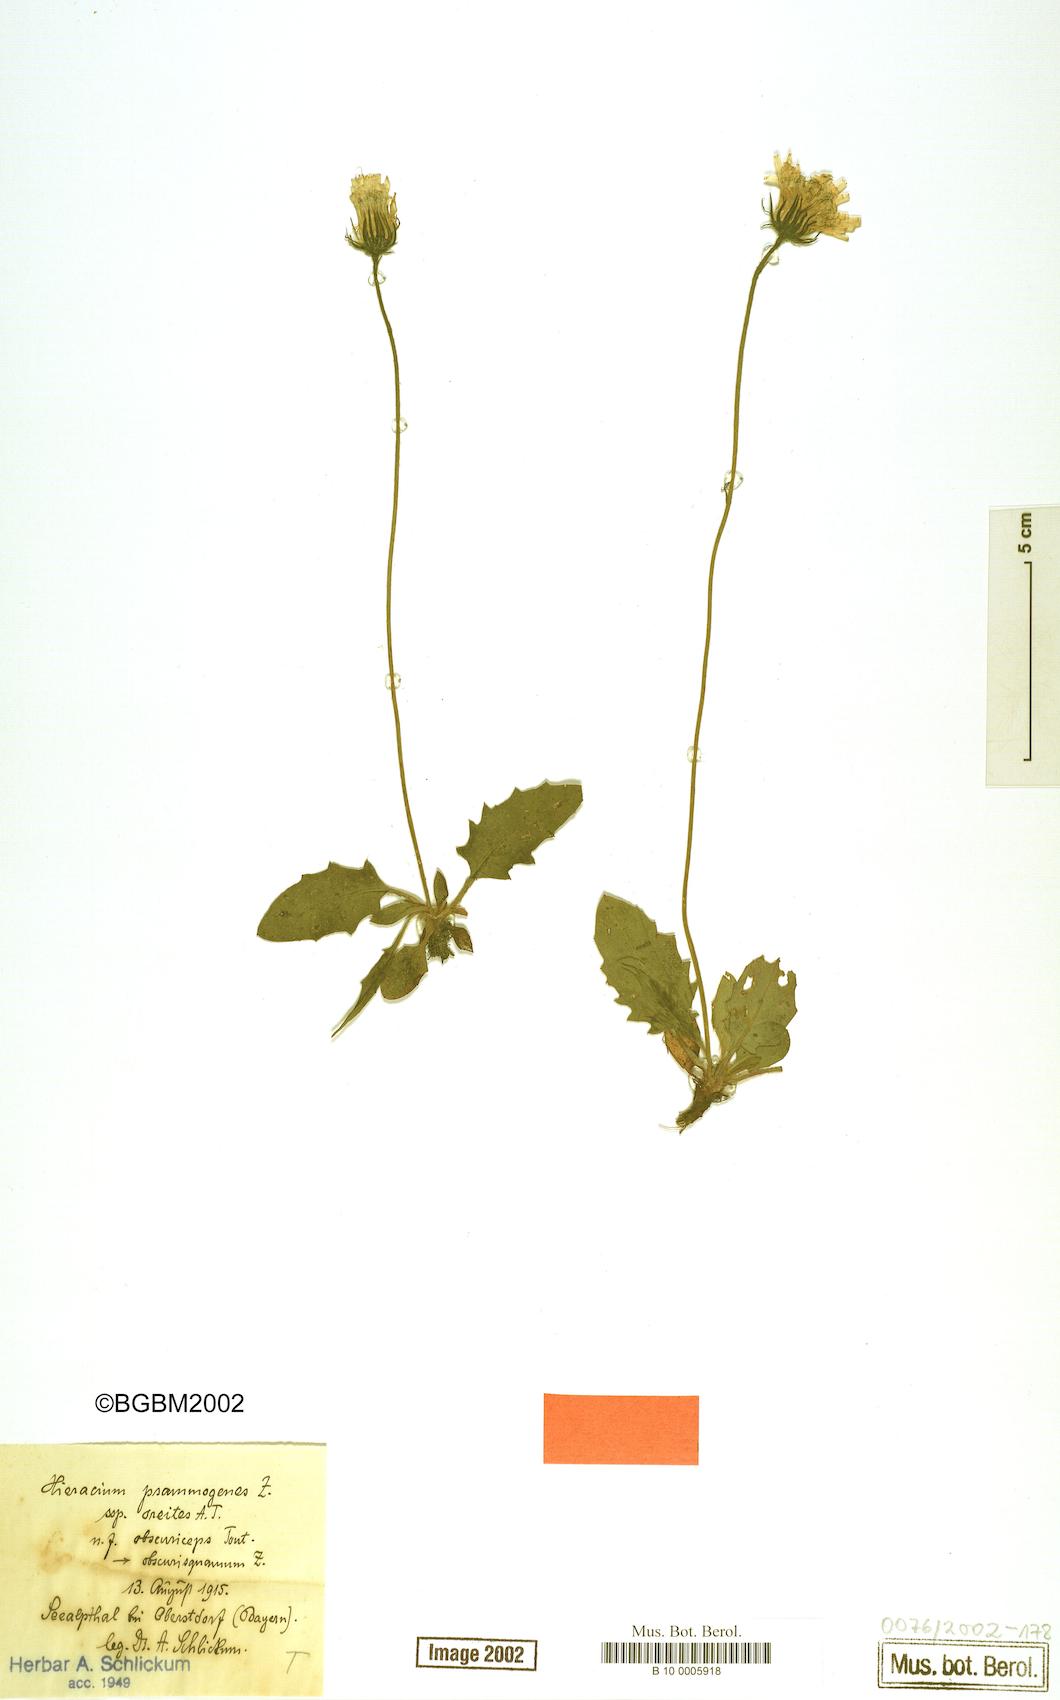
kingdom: Plantae
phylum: Tracheophyta
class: Magnoliopsida
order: Asterales
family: Asteraceae
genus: Hieracium
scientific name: Hieracium psammogenes
